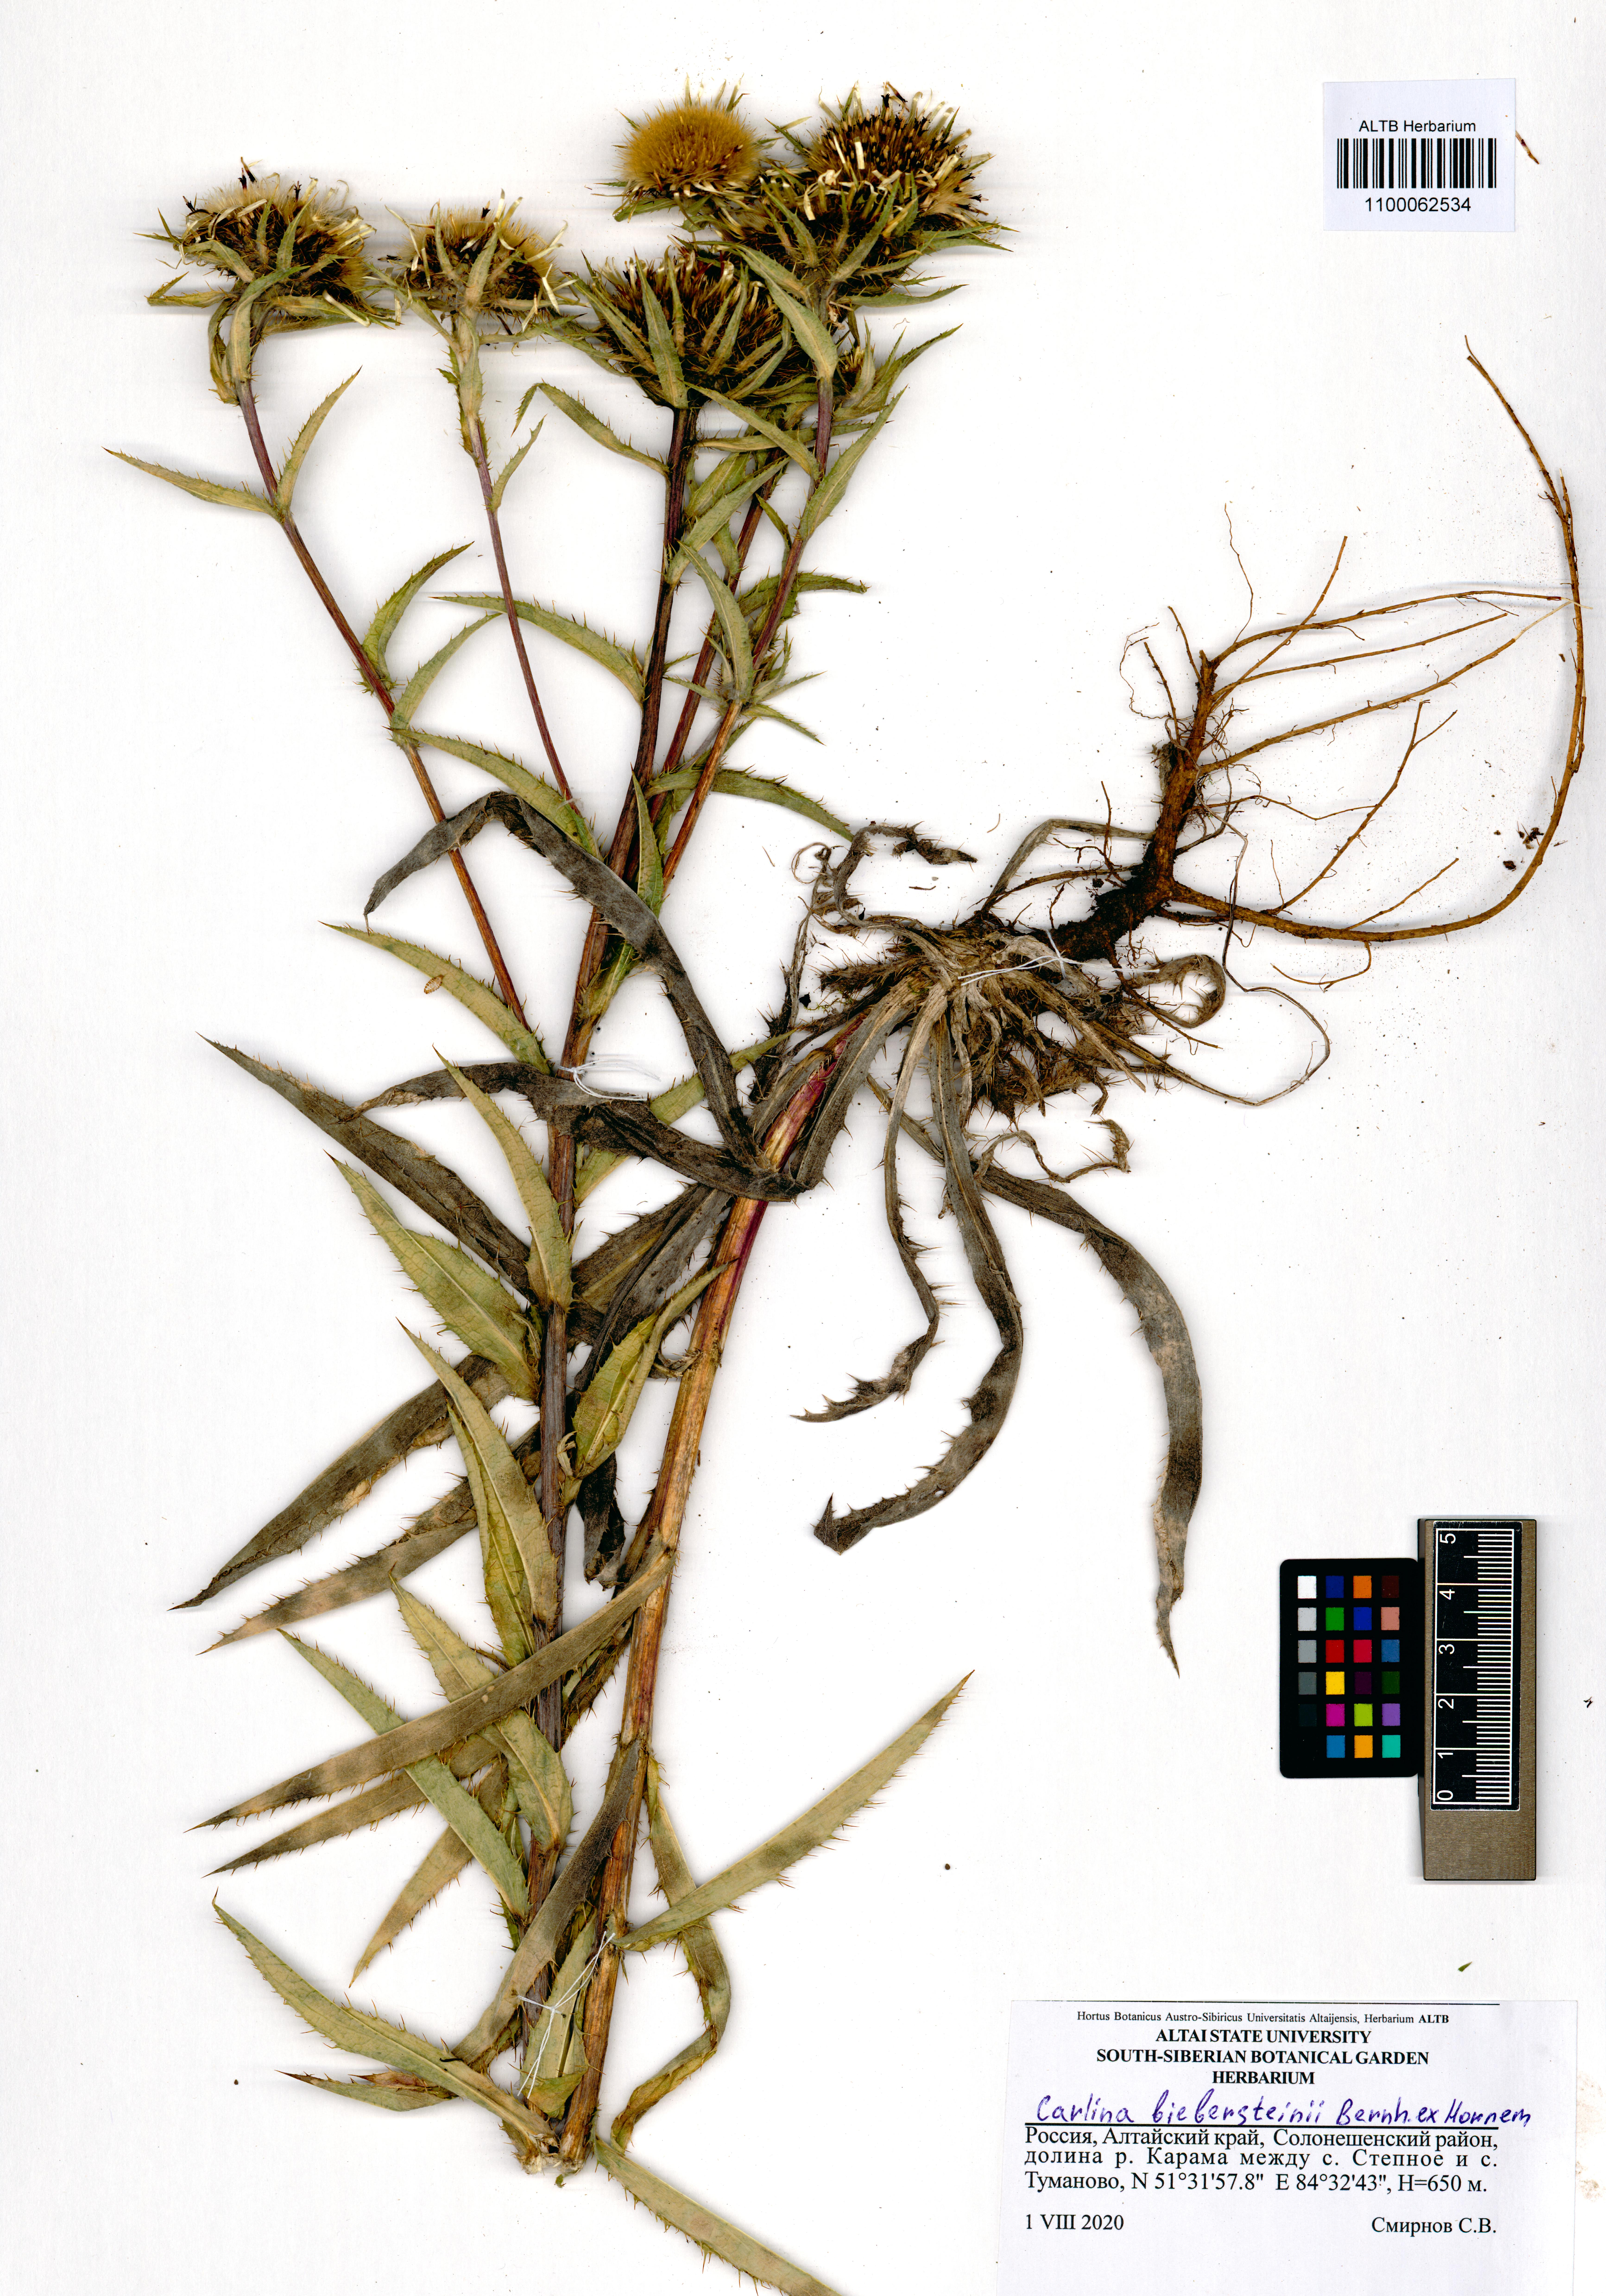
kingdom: Plantae
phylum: Tracheophyta
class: Magnoliopsida
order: Asterales
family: Asteraceae
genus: Carlina
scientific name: Carlina biebersteinii
